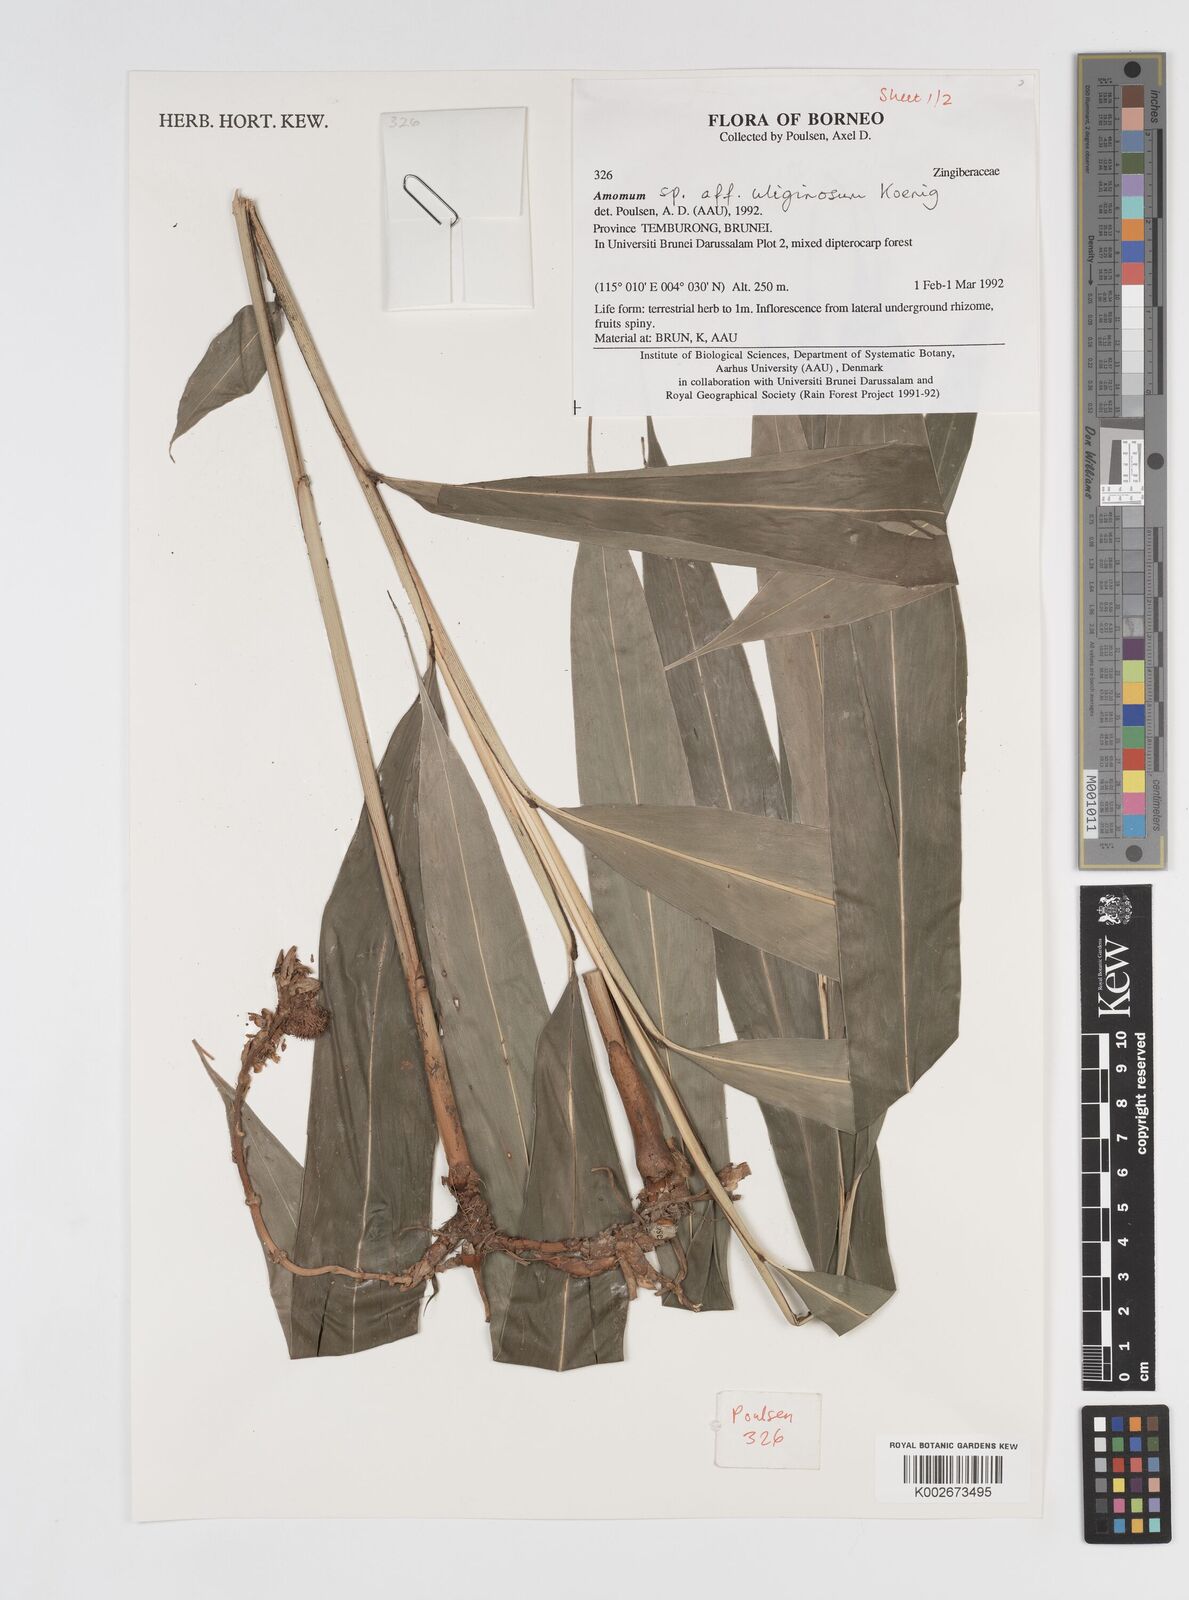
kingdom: Plantae
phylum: Tracheophyta
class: Liliopsida
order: Zingiberales
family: Zingiberaceae
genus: Wurfbainia
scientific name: Wurfbainia uliginosa
